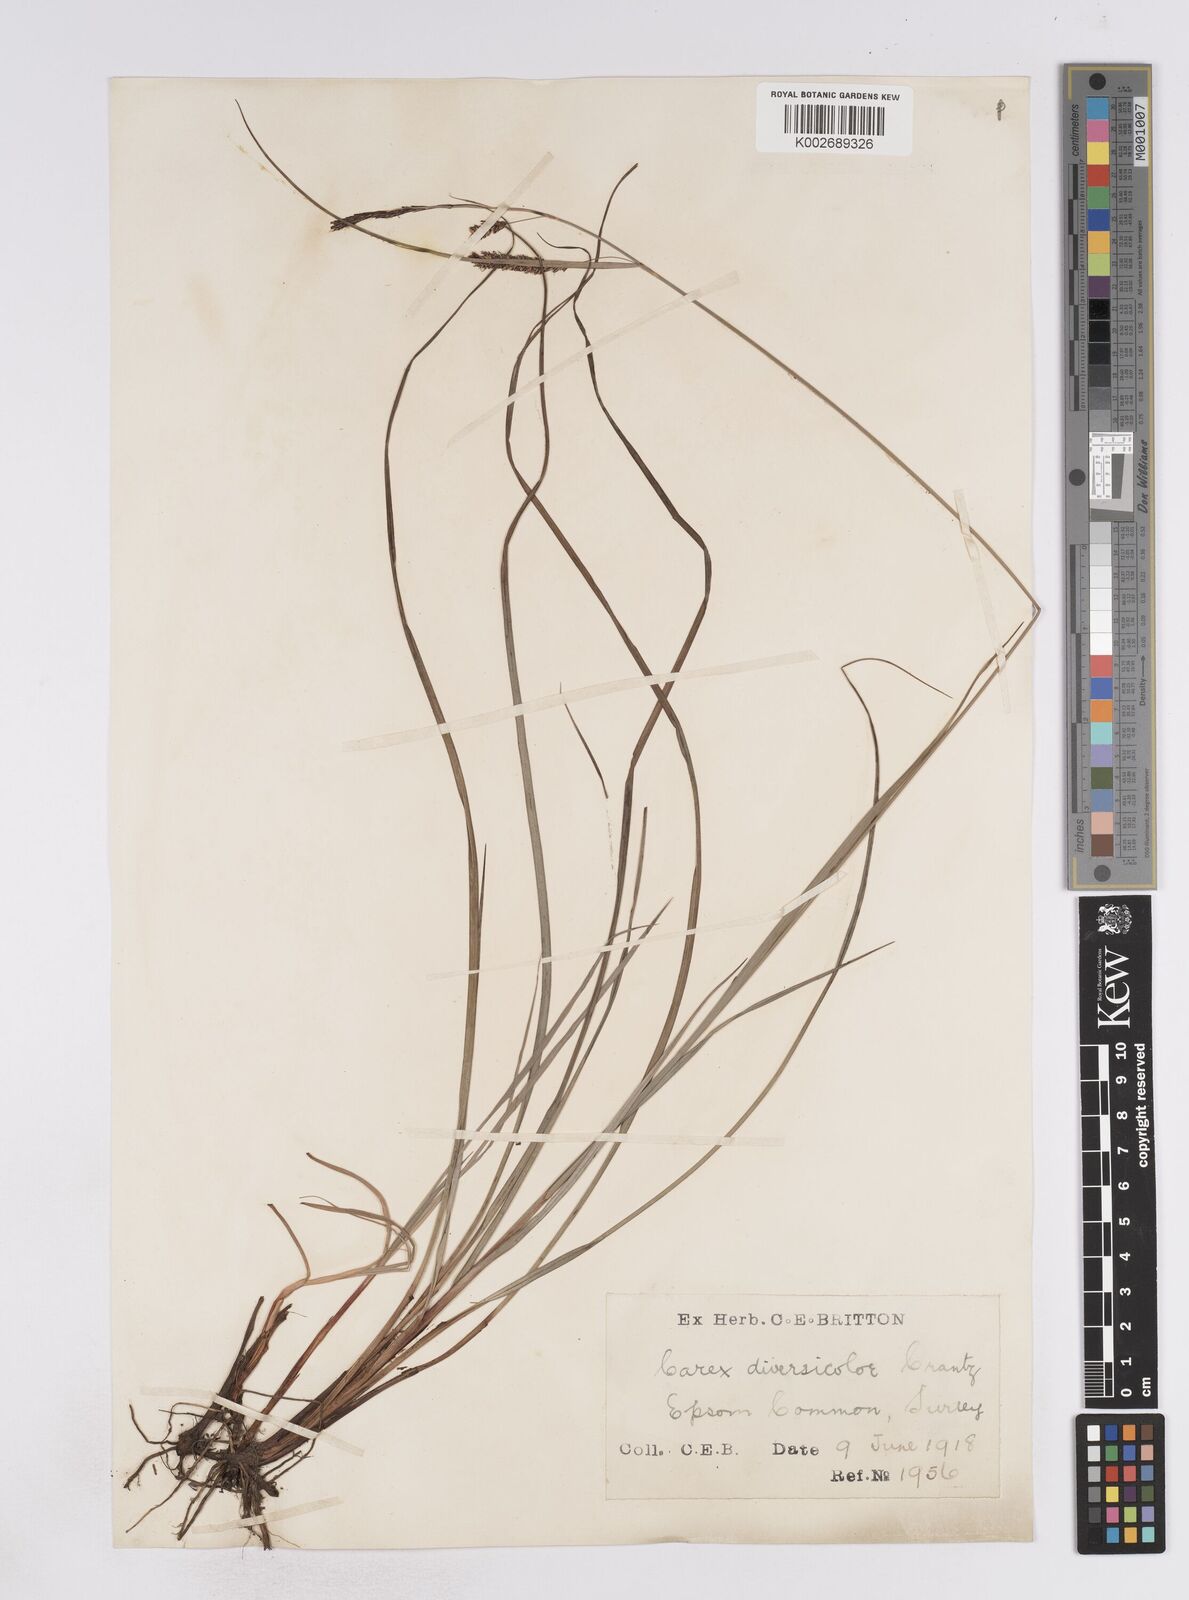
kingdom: Plantae
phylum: Tracheophyta
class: Liliopsida
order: Poales
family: Cyperaceae
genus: Carex
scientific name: Carex flacca
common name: Glaucous sedge
